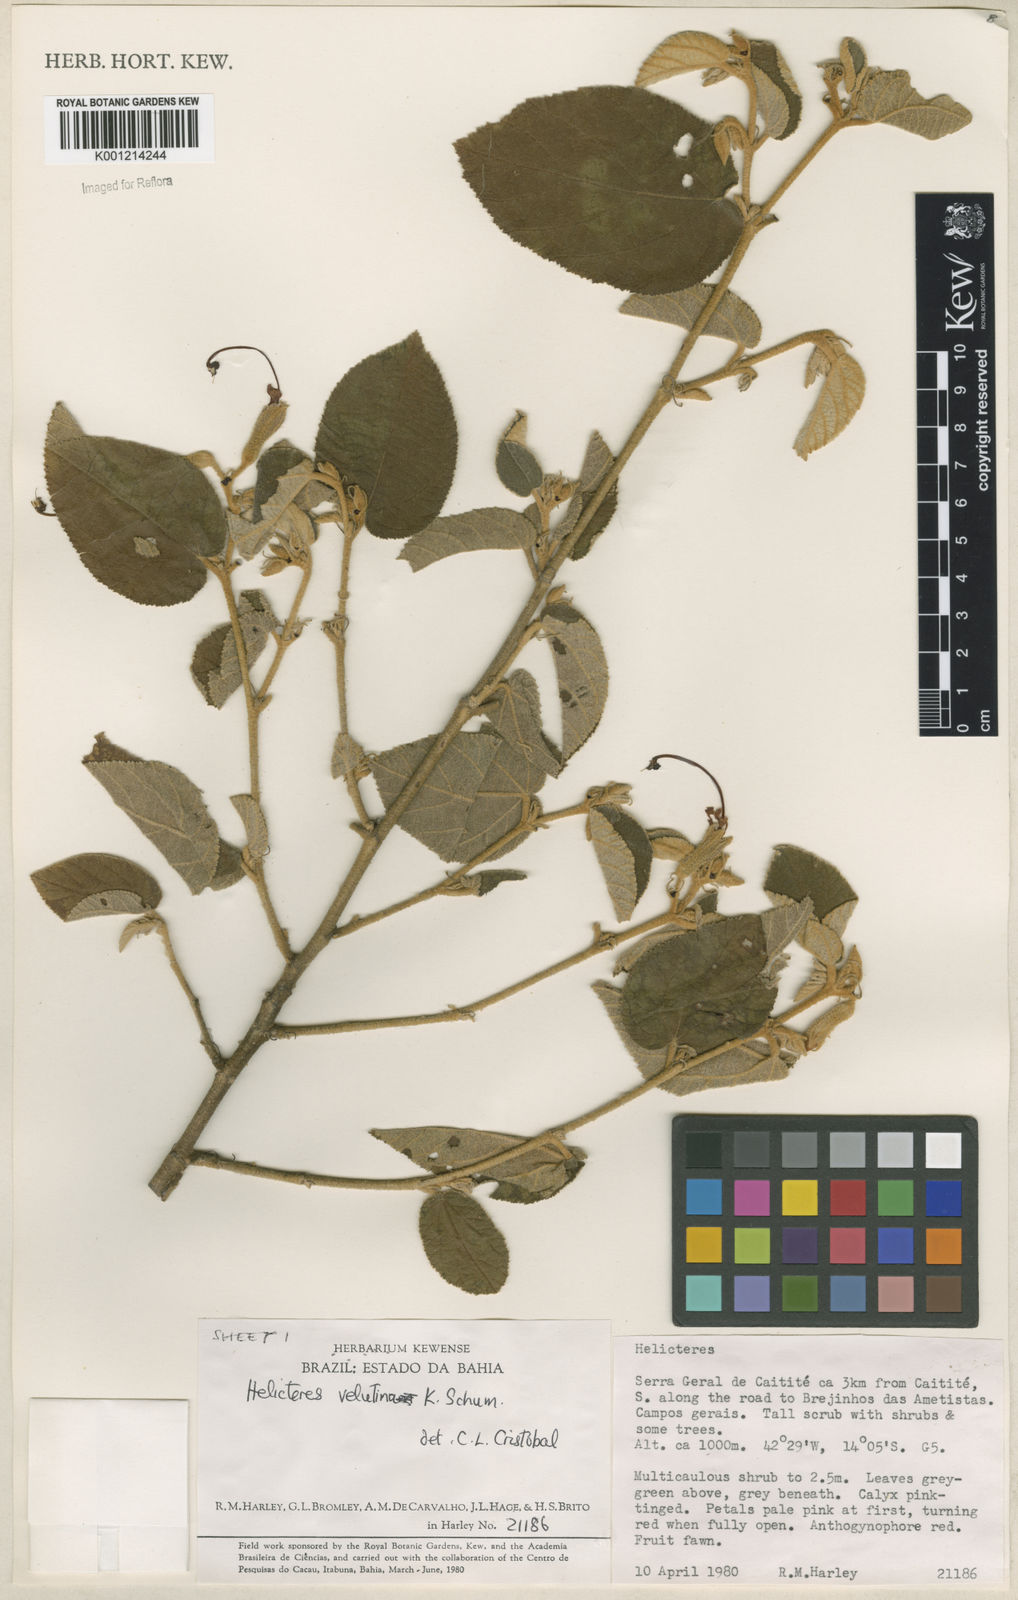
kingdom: Plantae
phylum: Tracheophyta
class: Magnoliopsida
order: Malvales
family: Malvaceae
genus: Helicteres
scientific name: Helicteres velutina
